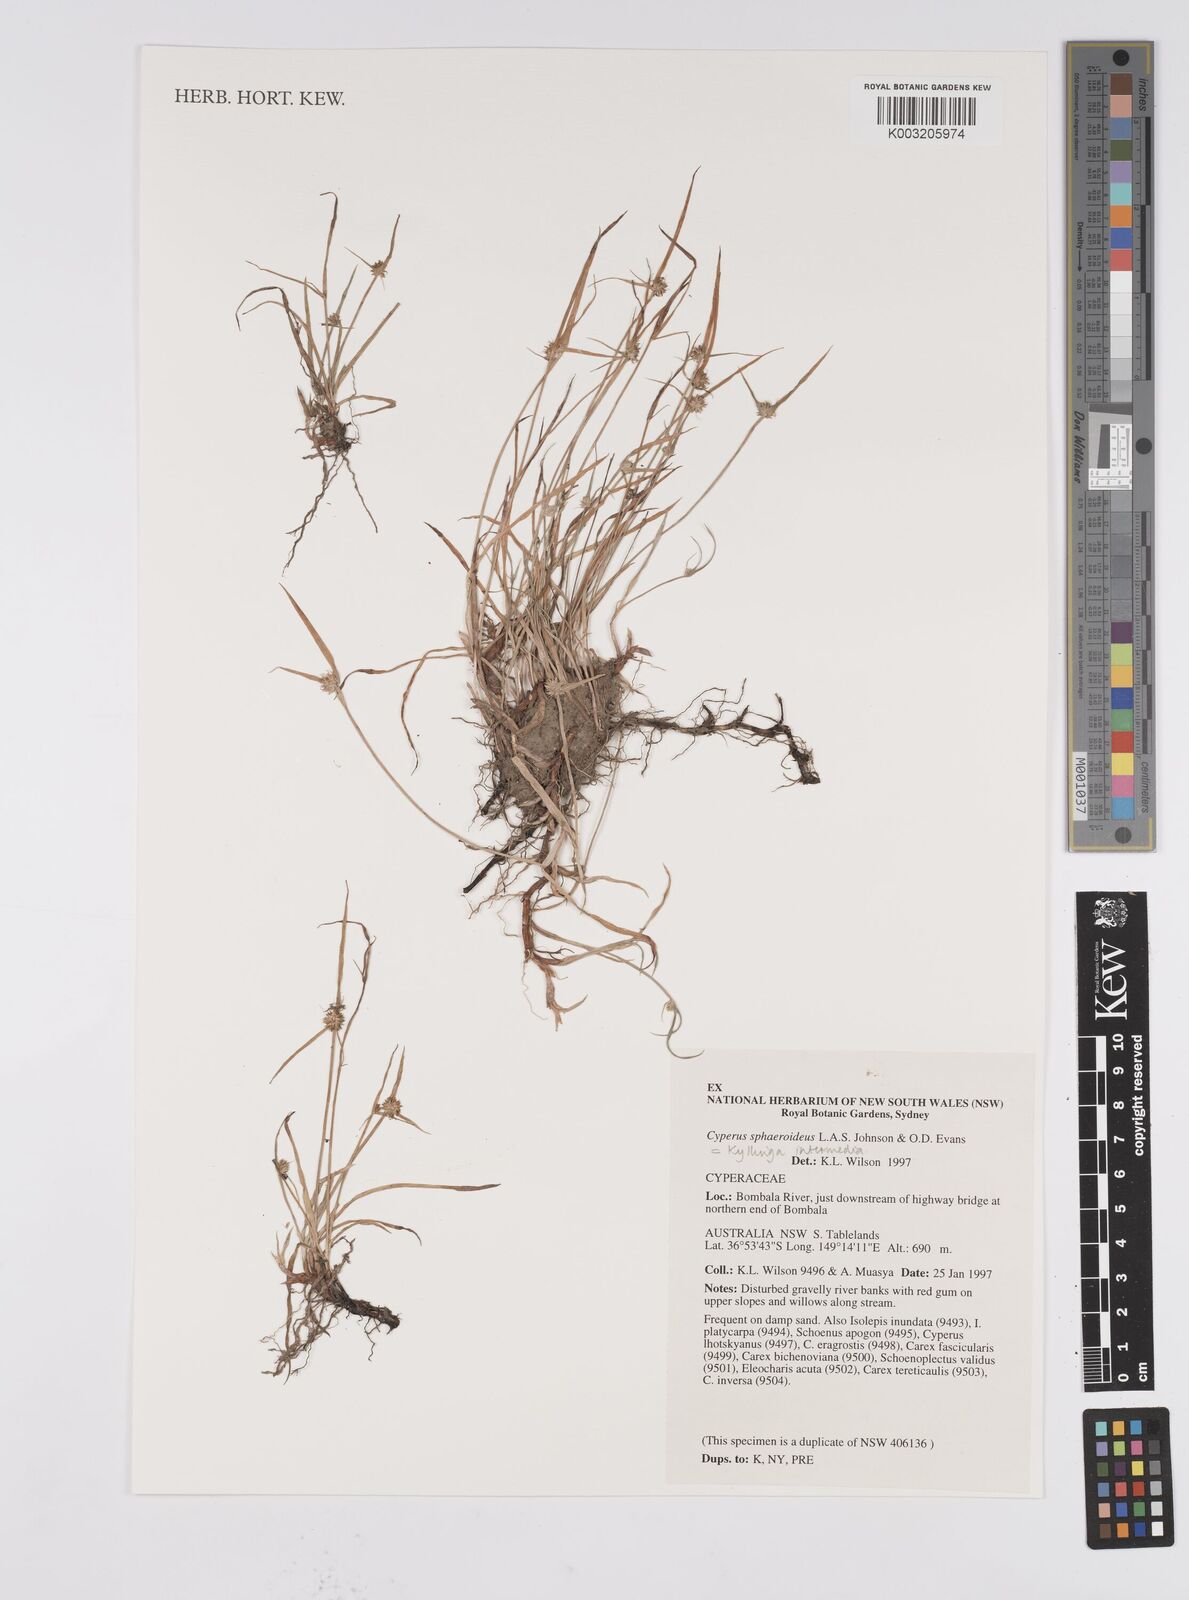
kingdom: Plantae
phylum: Tracheophyta
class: Liliopsida
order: Poales
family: Cyperaceae
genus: Cyperus
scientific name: Cyperus longus
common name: Galingale
